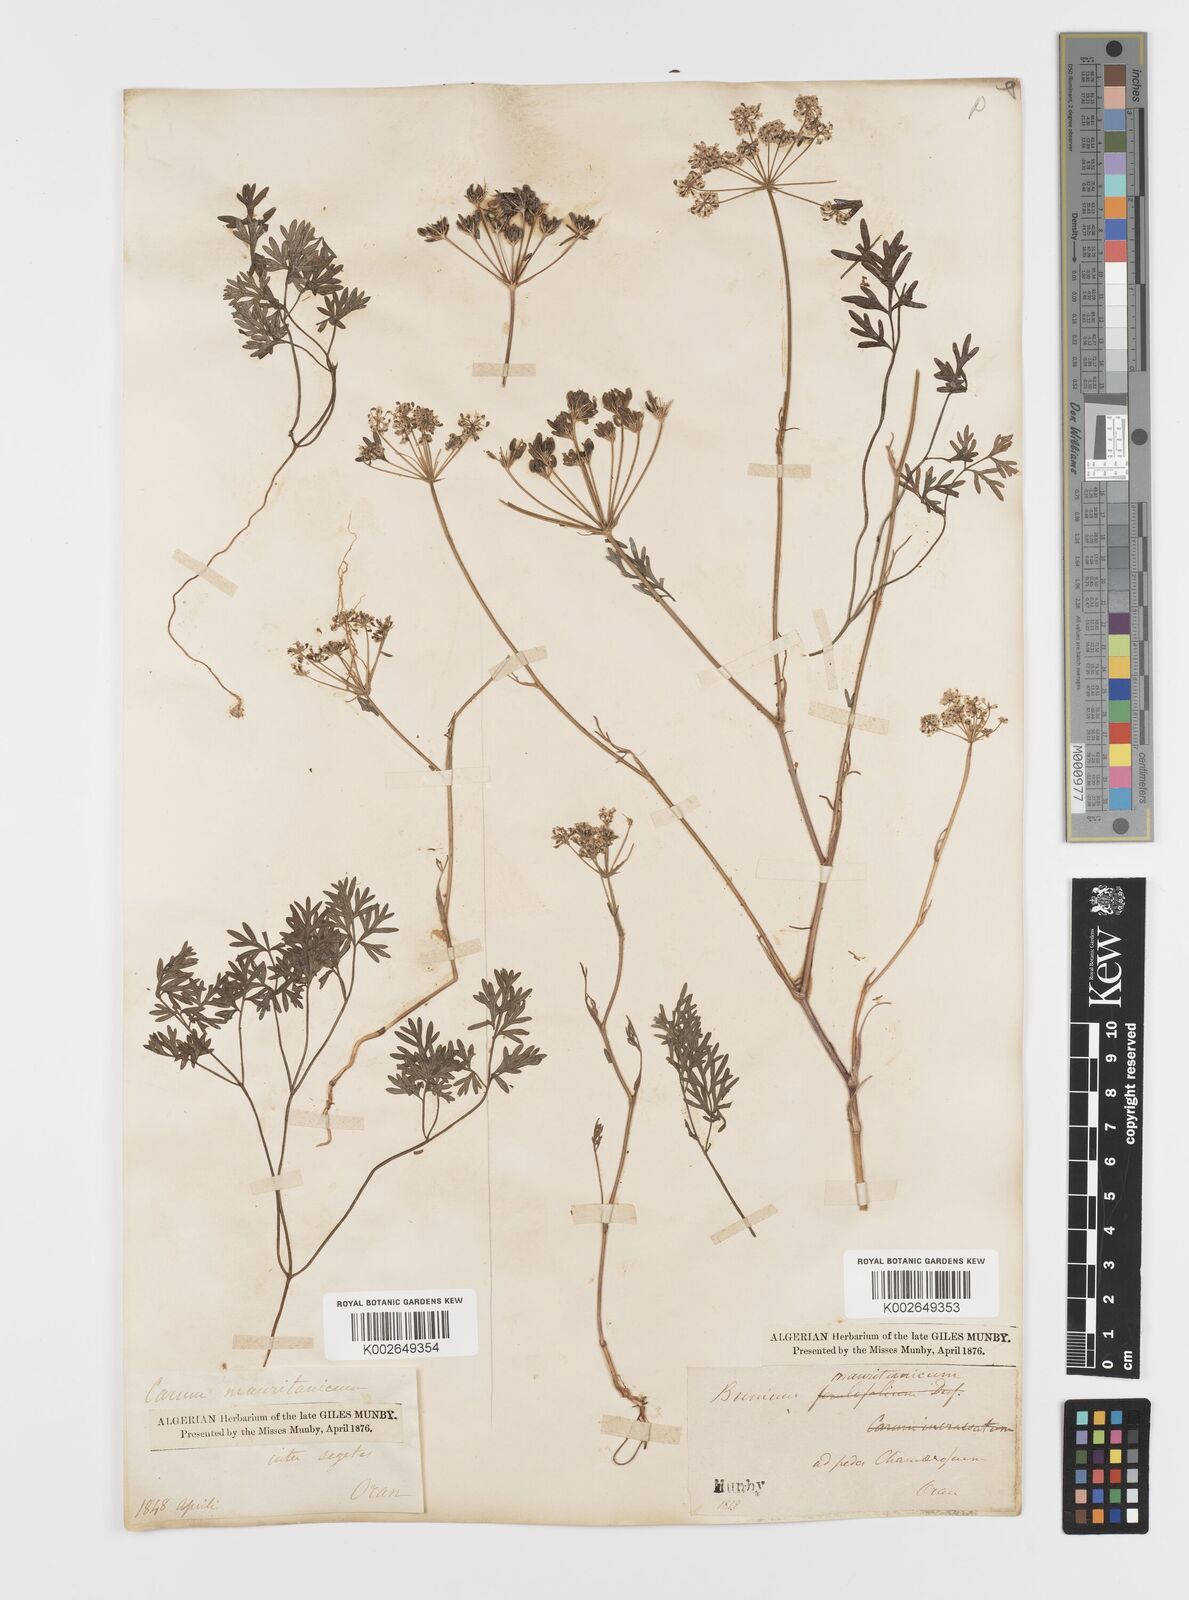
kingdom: Plantae
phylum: Tracheophyta
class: Magnoliopsida
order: Apiales
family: Apiaceae
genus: Bunium
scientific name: Bunium fontanesii
